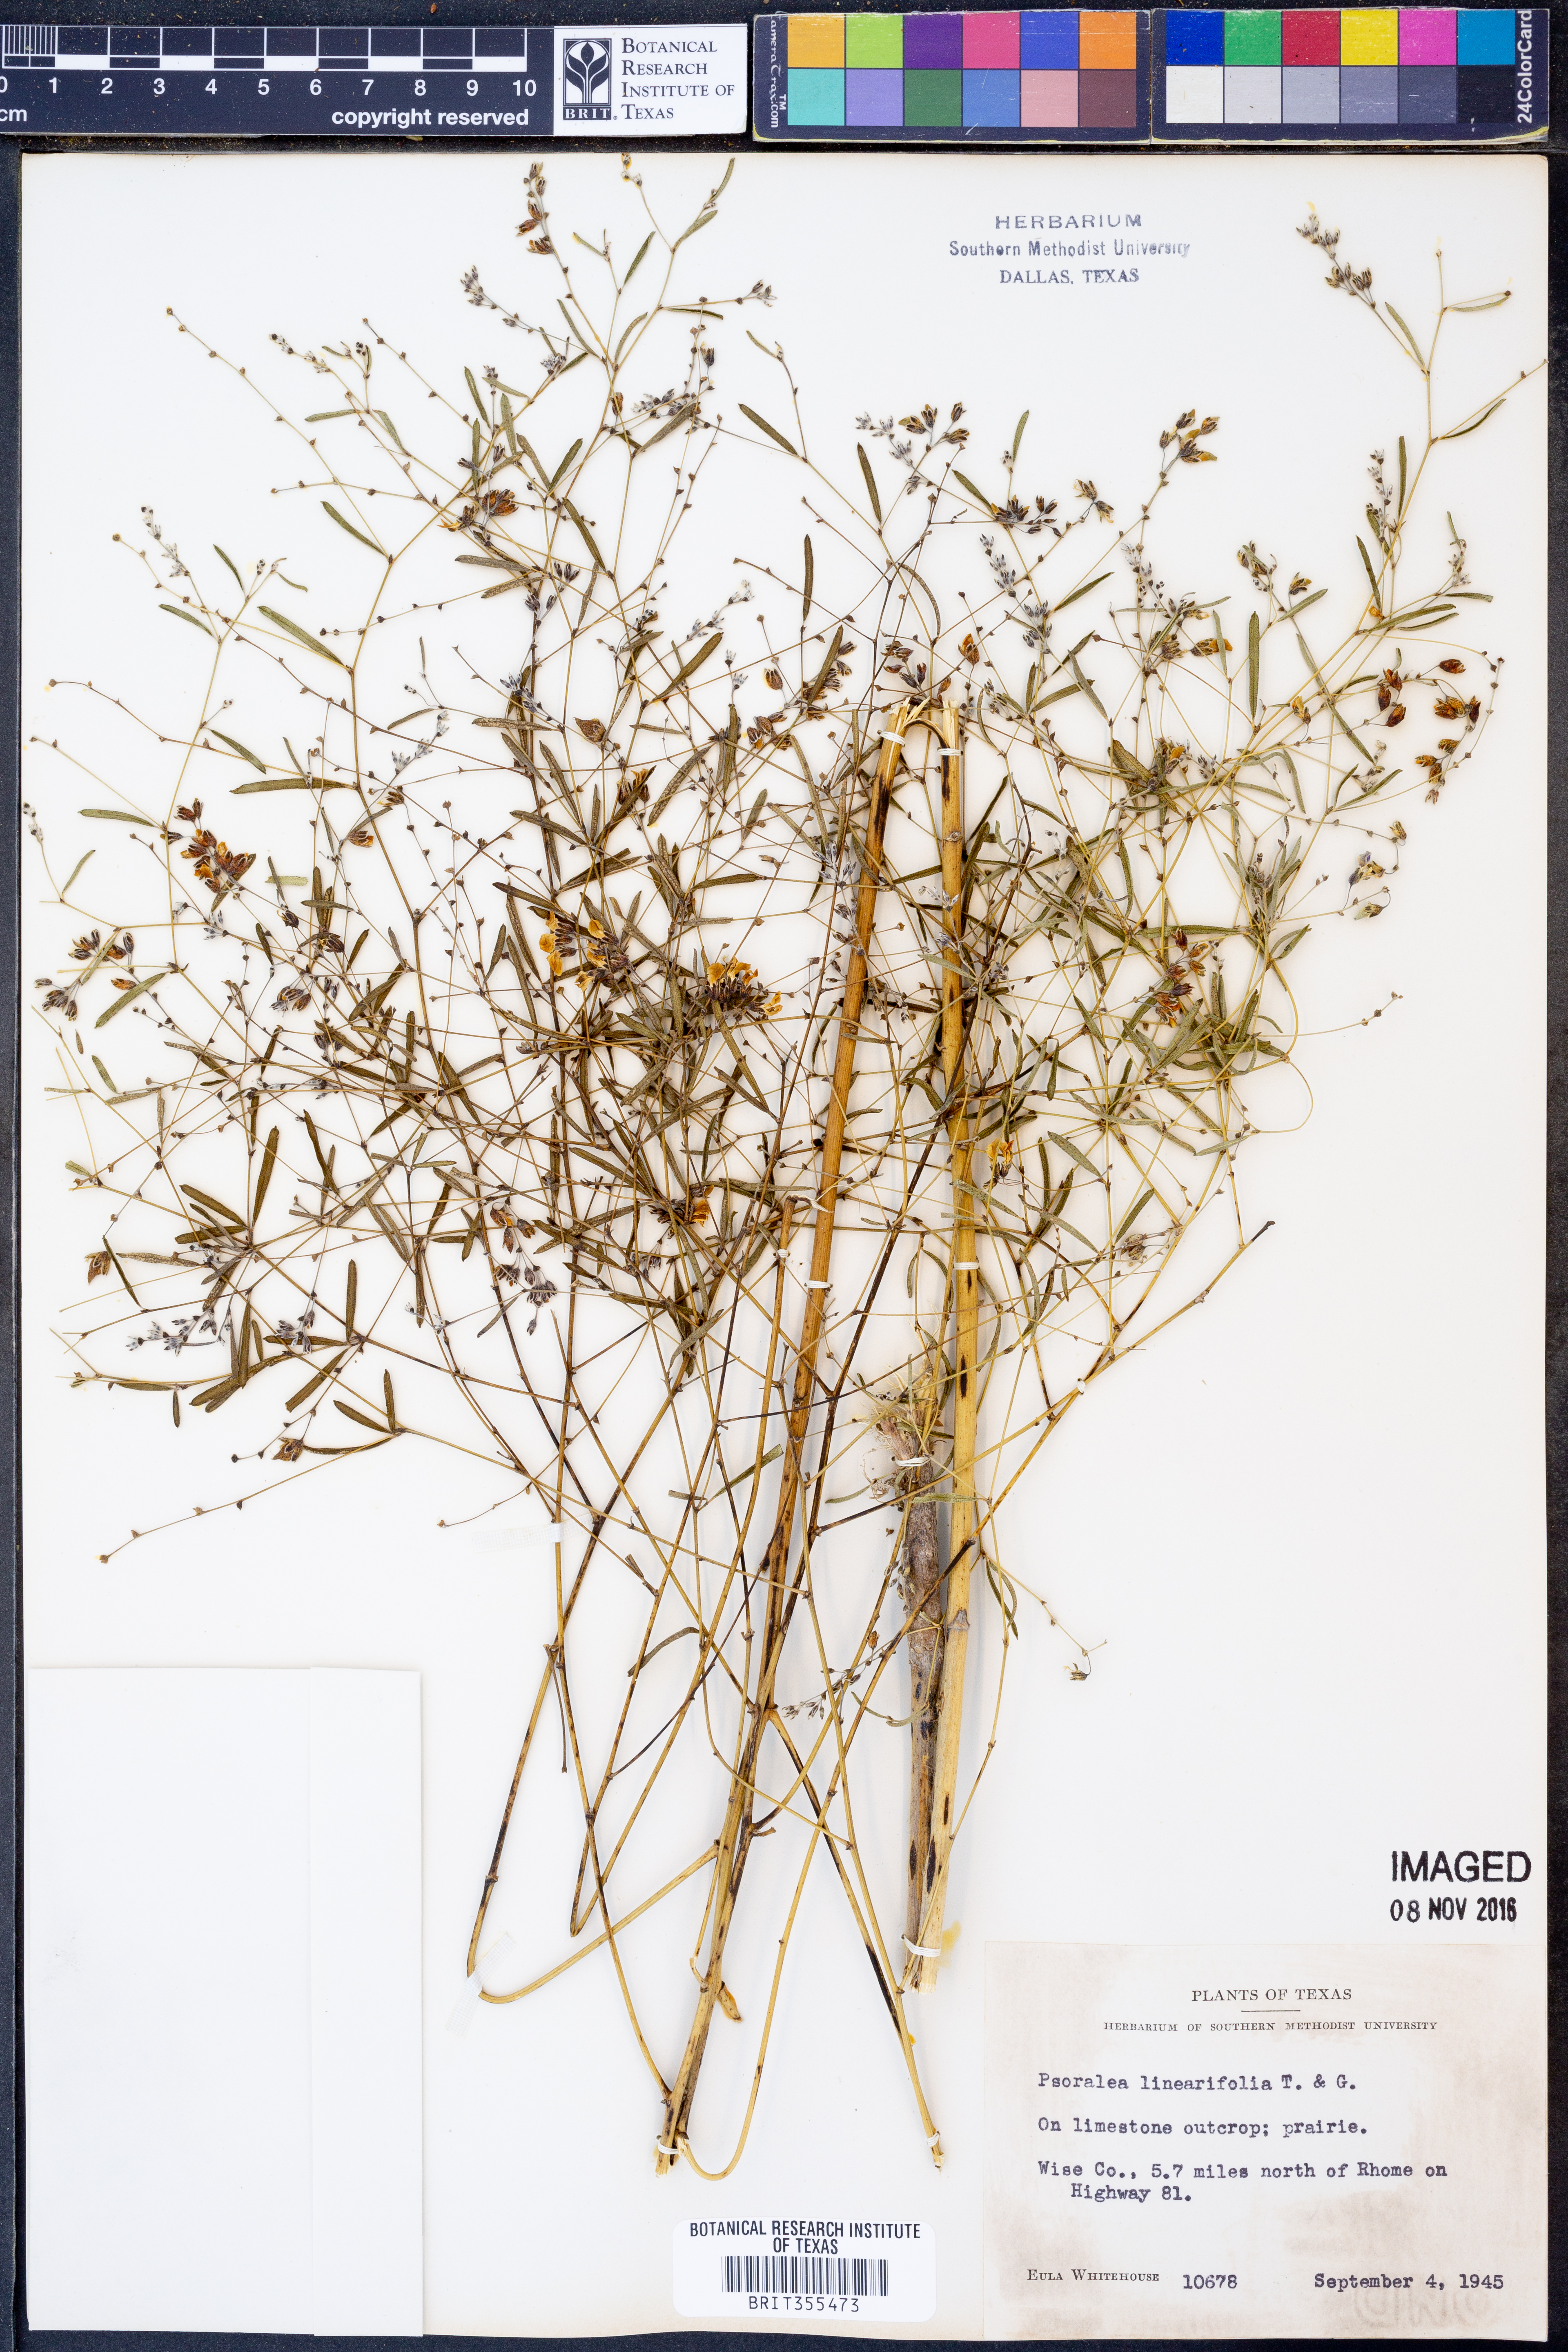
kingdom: Plantae
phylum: Tracheophyta
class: Magnoliopsida
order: Fabales
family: Fabaceae
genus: Pediomelum
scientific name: Pediomelum linearifolium
